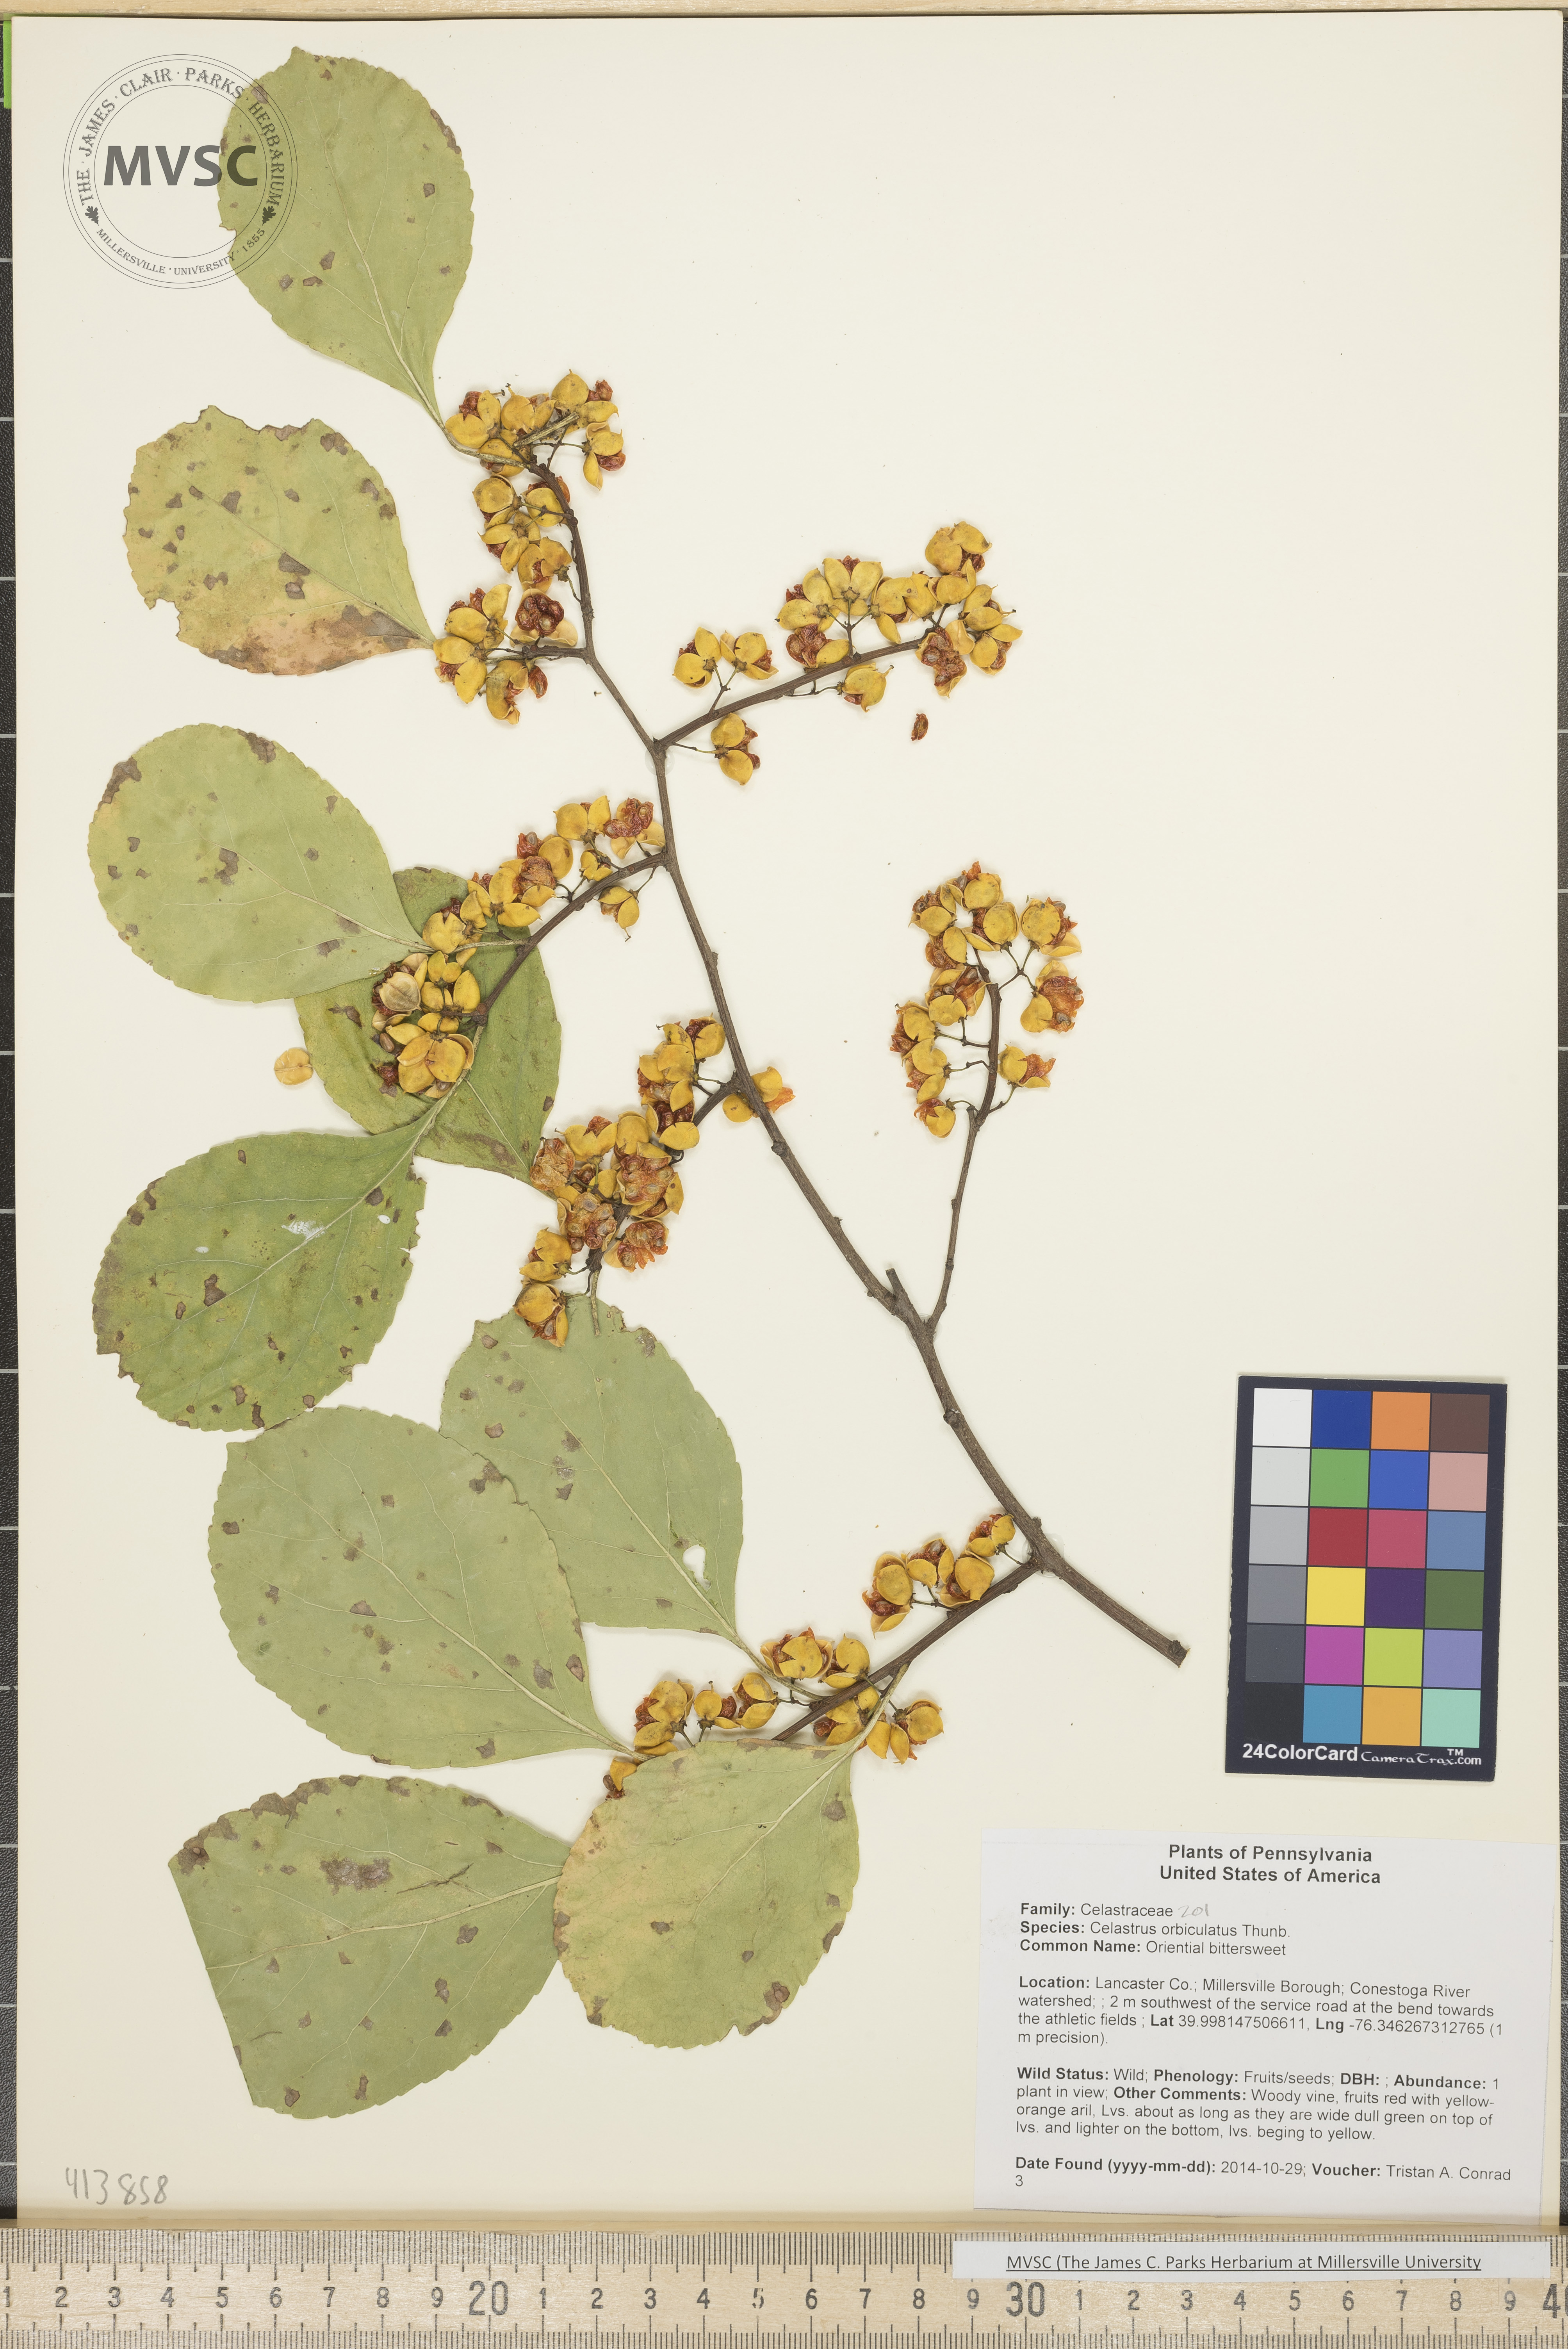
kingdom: Plantae
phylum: Tracheophyta
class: Magnoliopsida
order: Celastrales
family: Celastraceae
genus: Celastrus
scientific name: Celastrus orbiculatus
